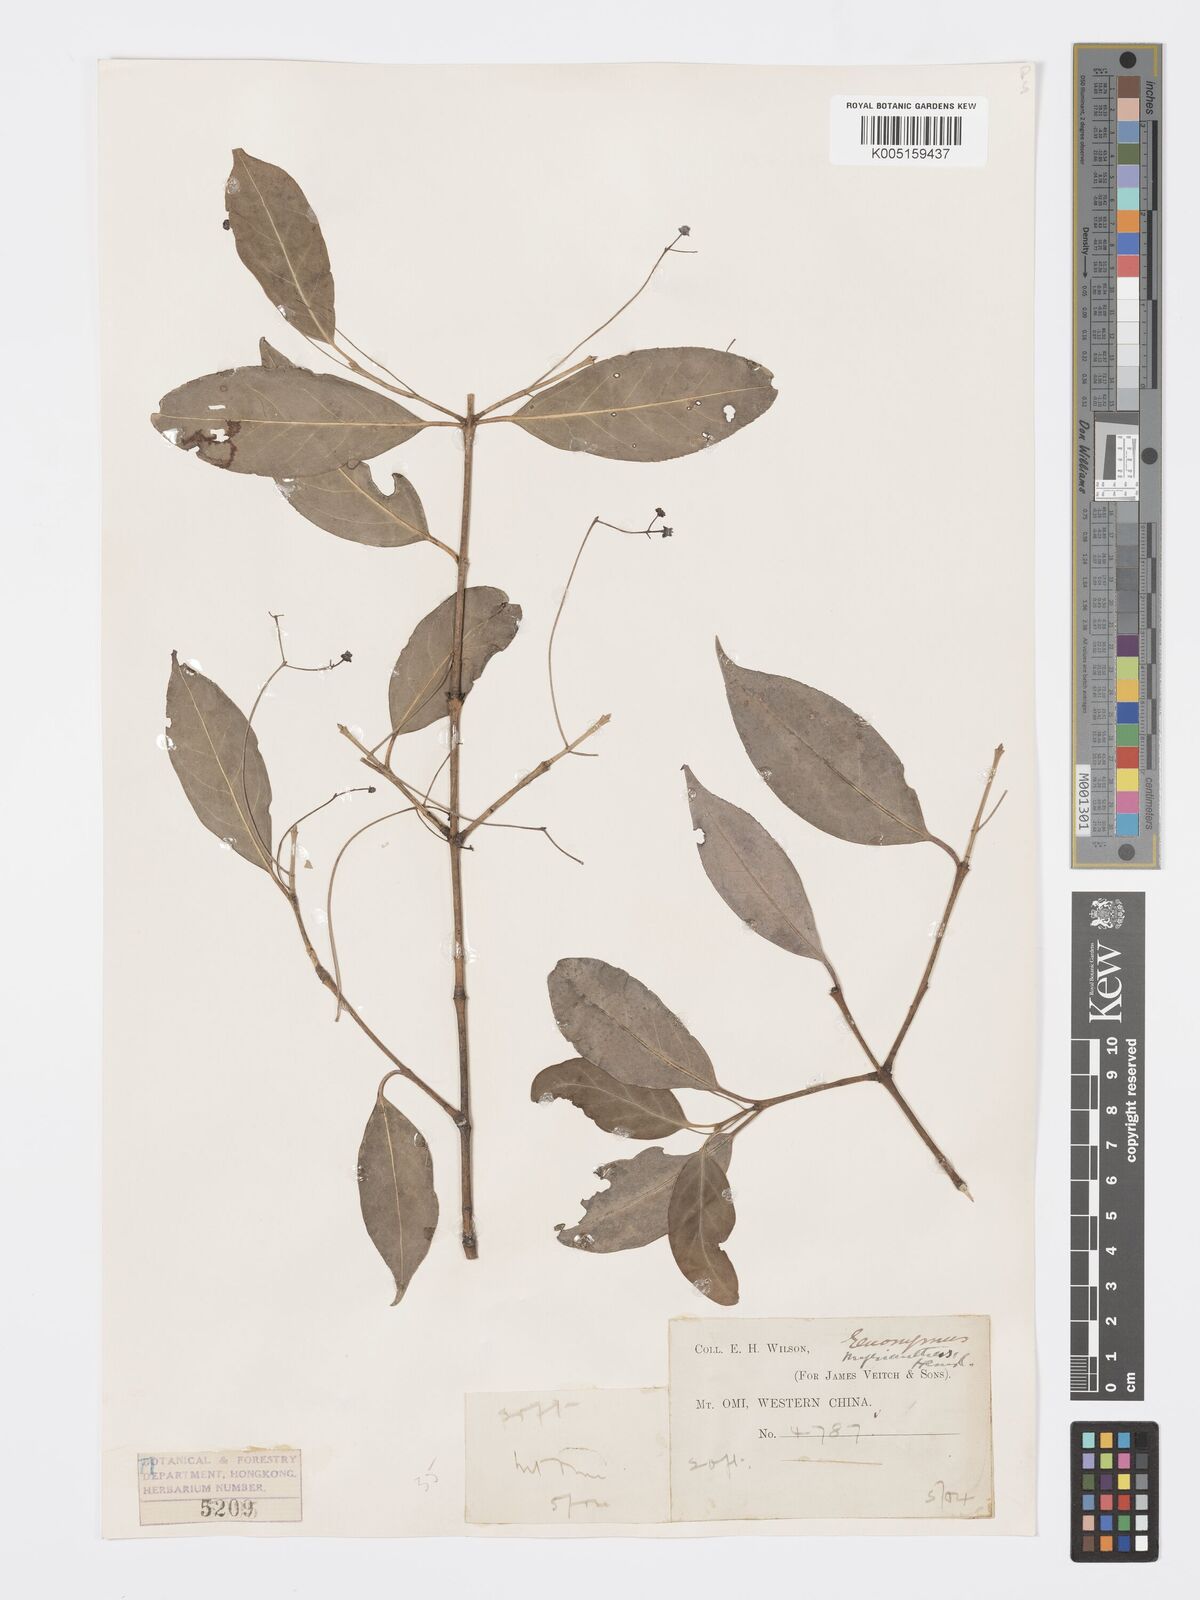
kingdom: Plantae
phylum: Tracheophyta
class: Magnoliopsida
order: Celastrales
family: Celastraceae
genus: Euonymus
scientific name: Euonymus myrianthus
